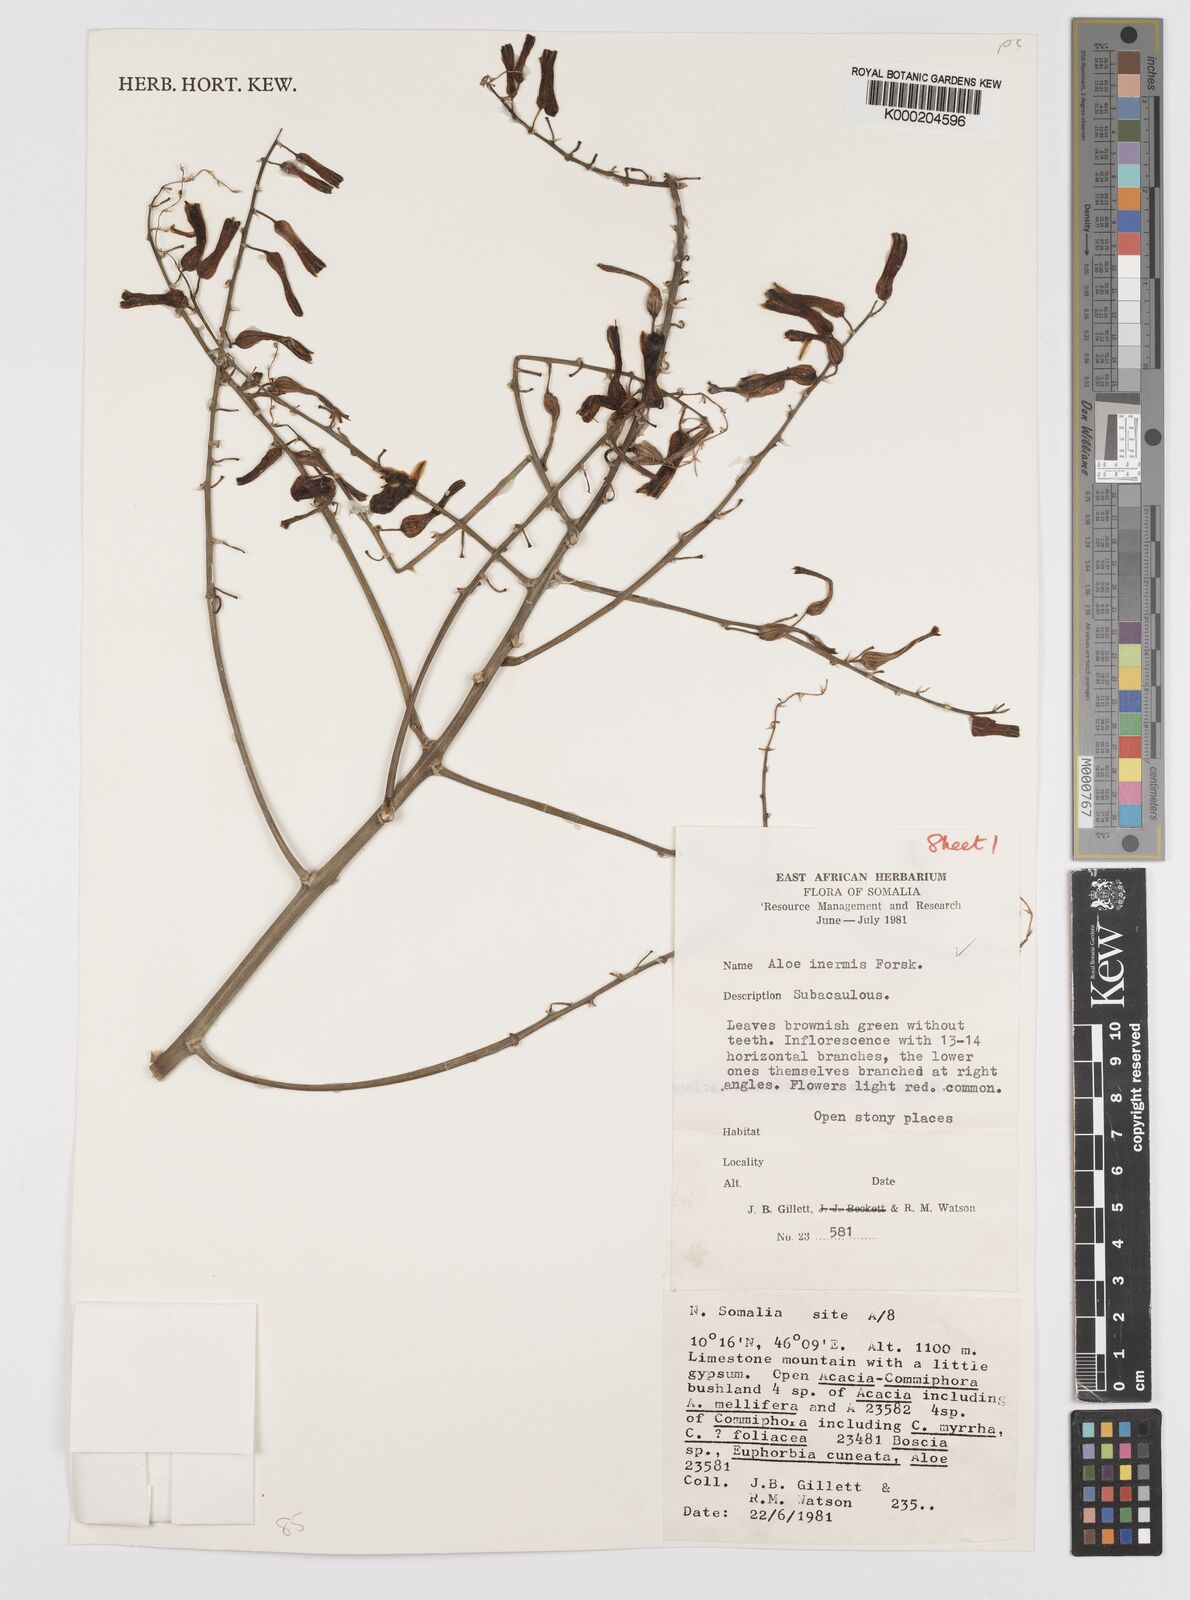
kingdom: Plantae
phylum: Tracheophyta
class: Liliopsida
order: Asparagales
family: Asphodelaceae
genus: Aloe
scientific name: Aloe luntii
